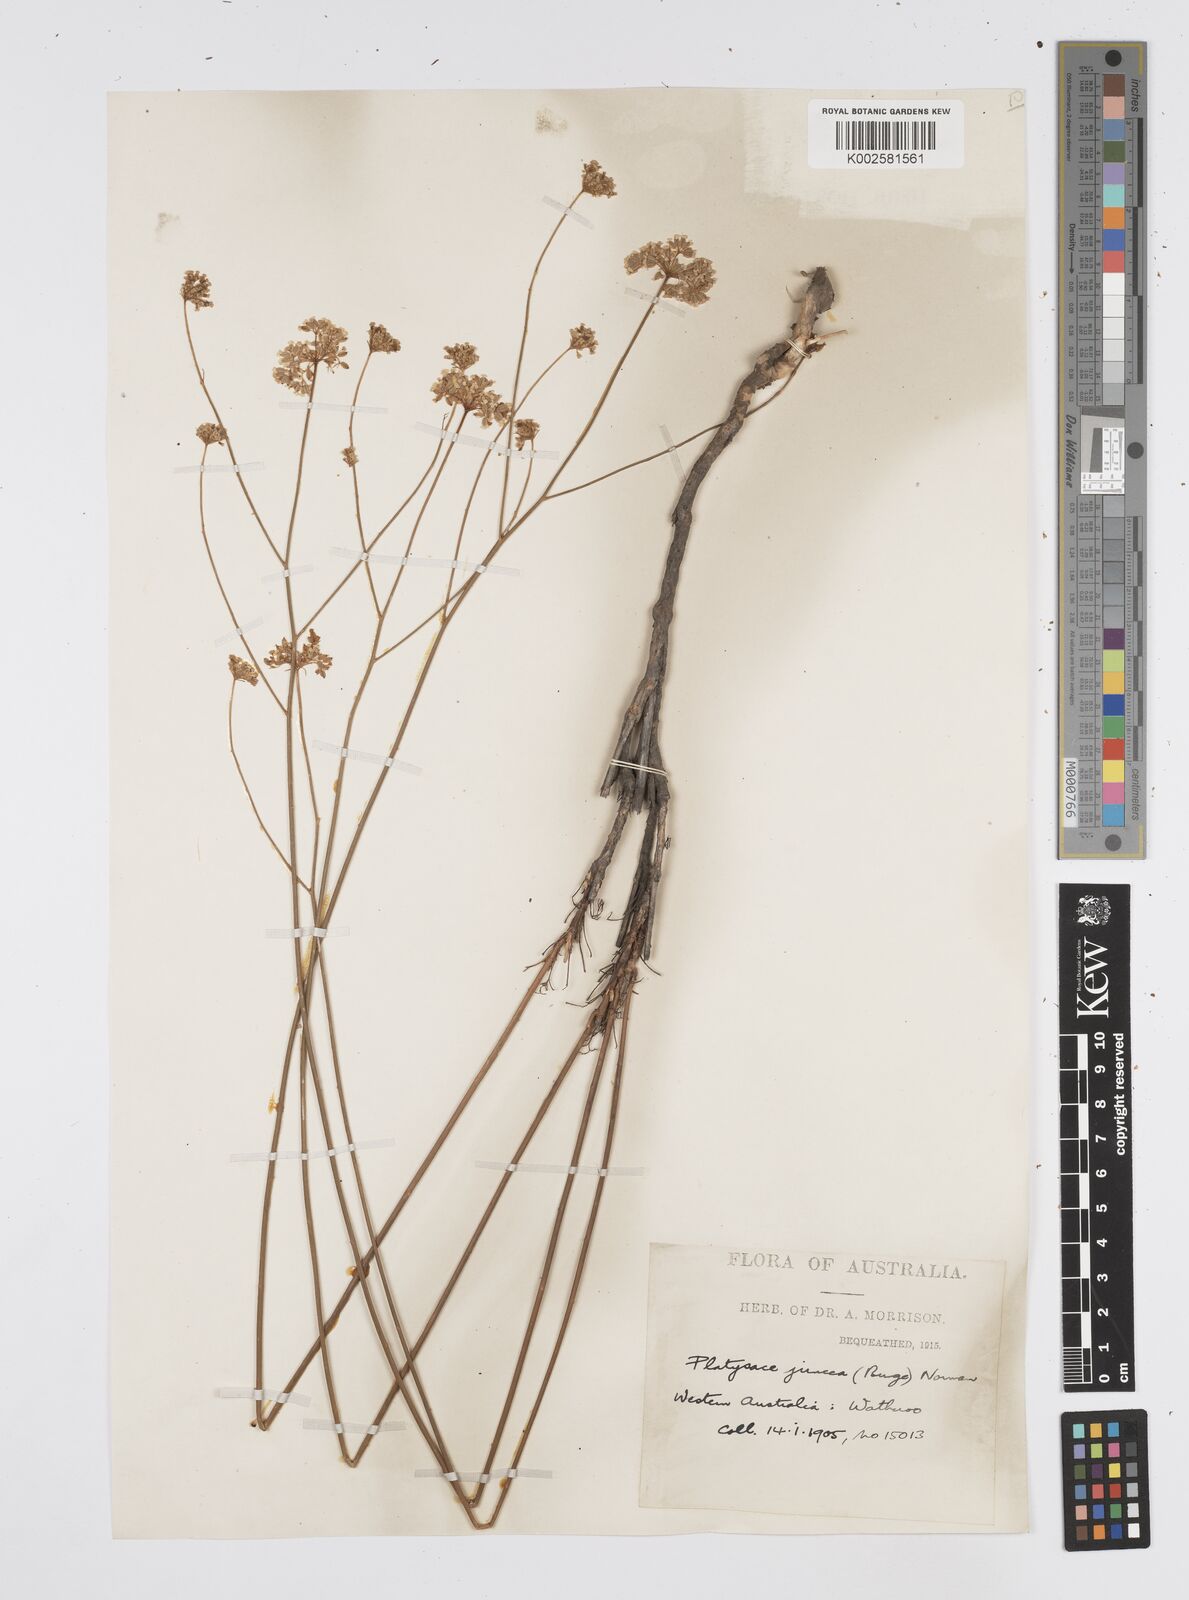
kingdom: Plantae
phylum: Tracheophyta
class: Magnoliopsida
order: Apiales
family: Apiaceae
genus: Platysace
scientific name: Platysace juncea
